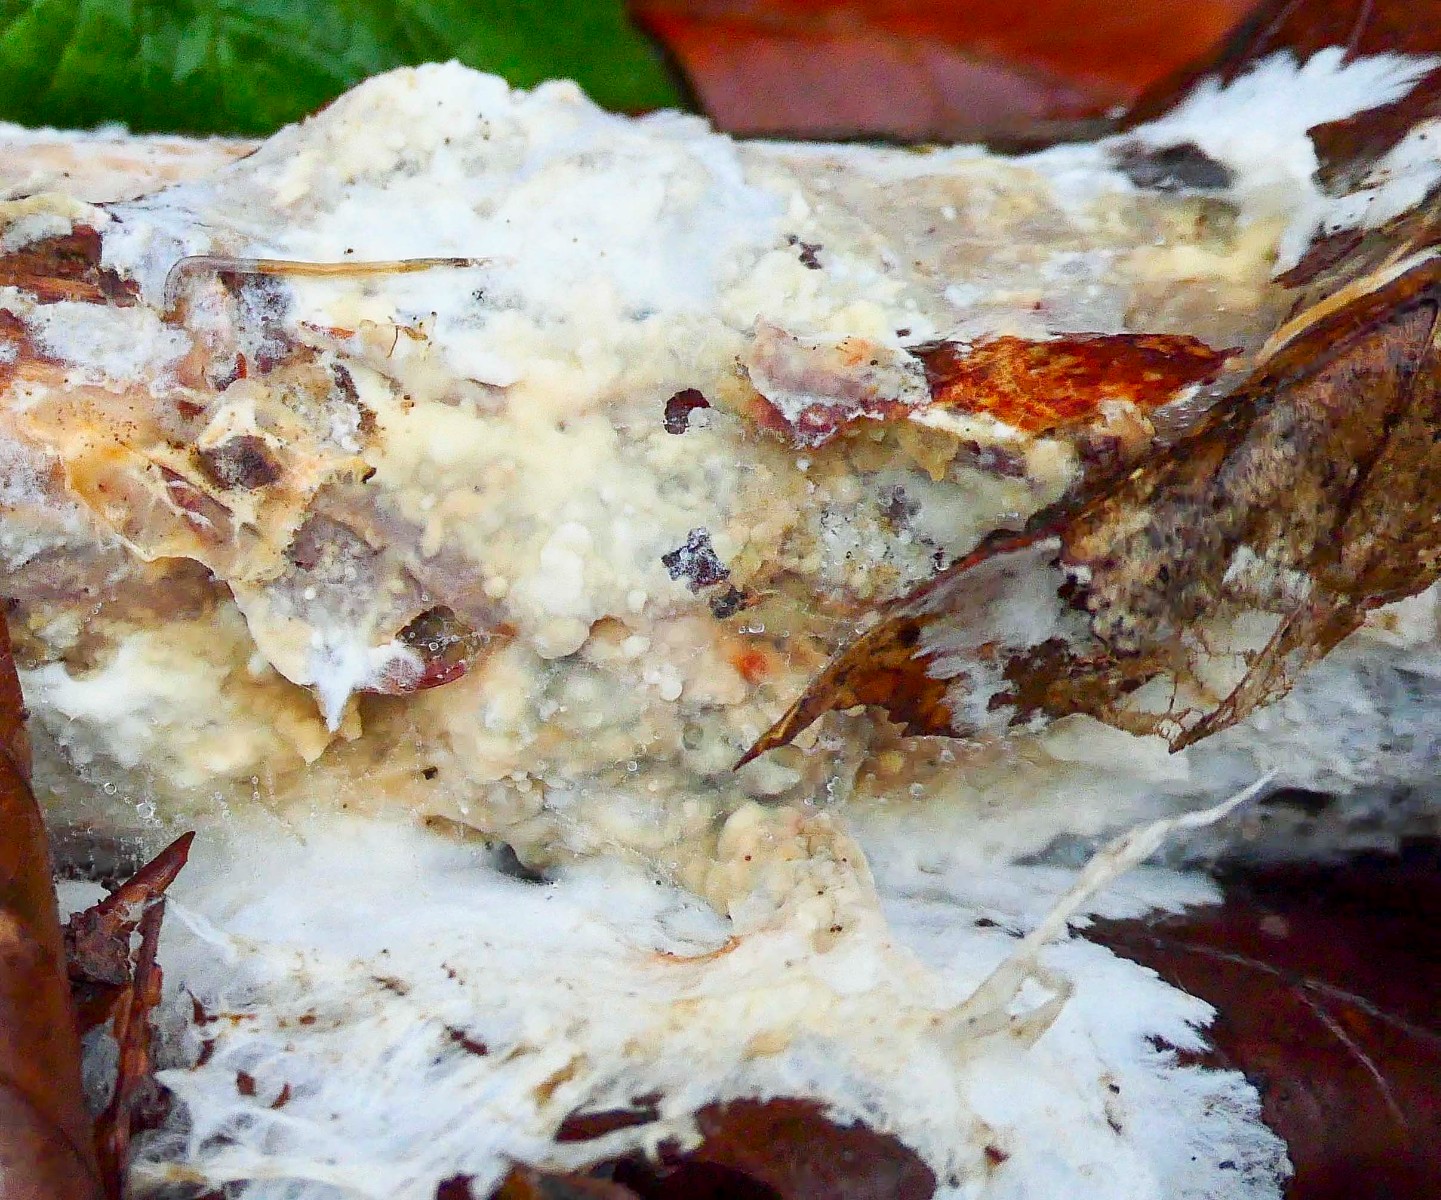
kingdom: Fungi
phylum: Basidiomycota
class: Agaricomycetes
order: Polyporales
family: Phanerochaetaceae
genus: Phanerochaete
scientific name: Phanerochaete velutina
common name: dunet randtråd
